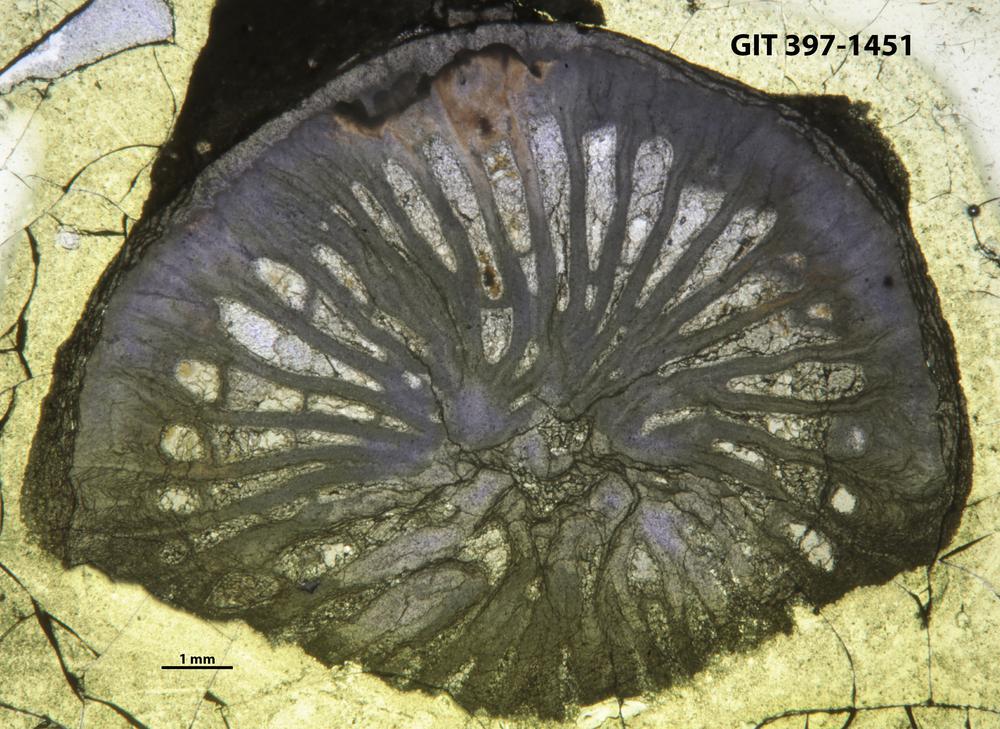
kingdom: Animalia
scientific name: Animalia
